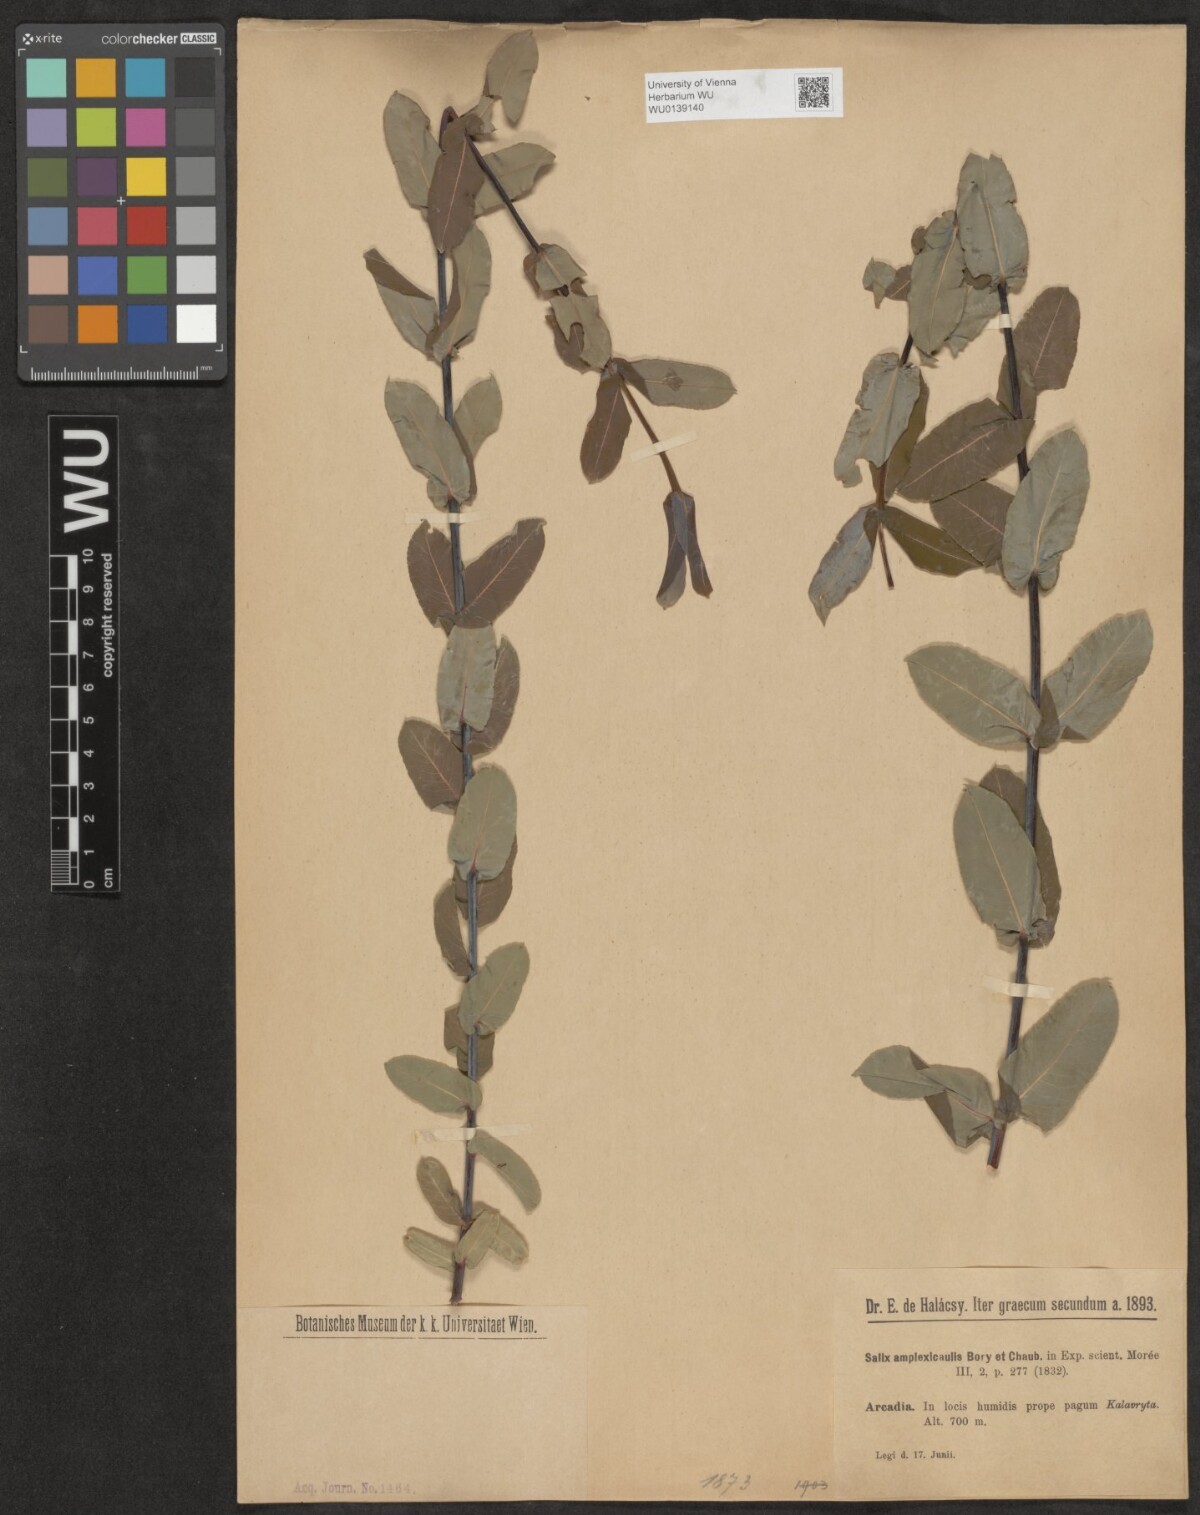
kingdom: Plantae
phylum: Tracheophyta
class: Magnoliopsida
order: Malpighiales
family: Salicaceae
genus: Salix
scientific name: Salix amplexicaulis
